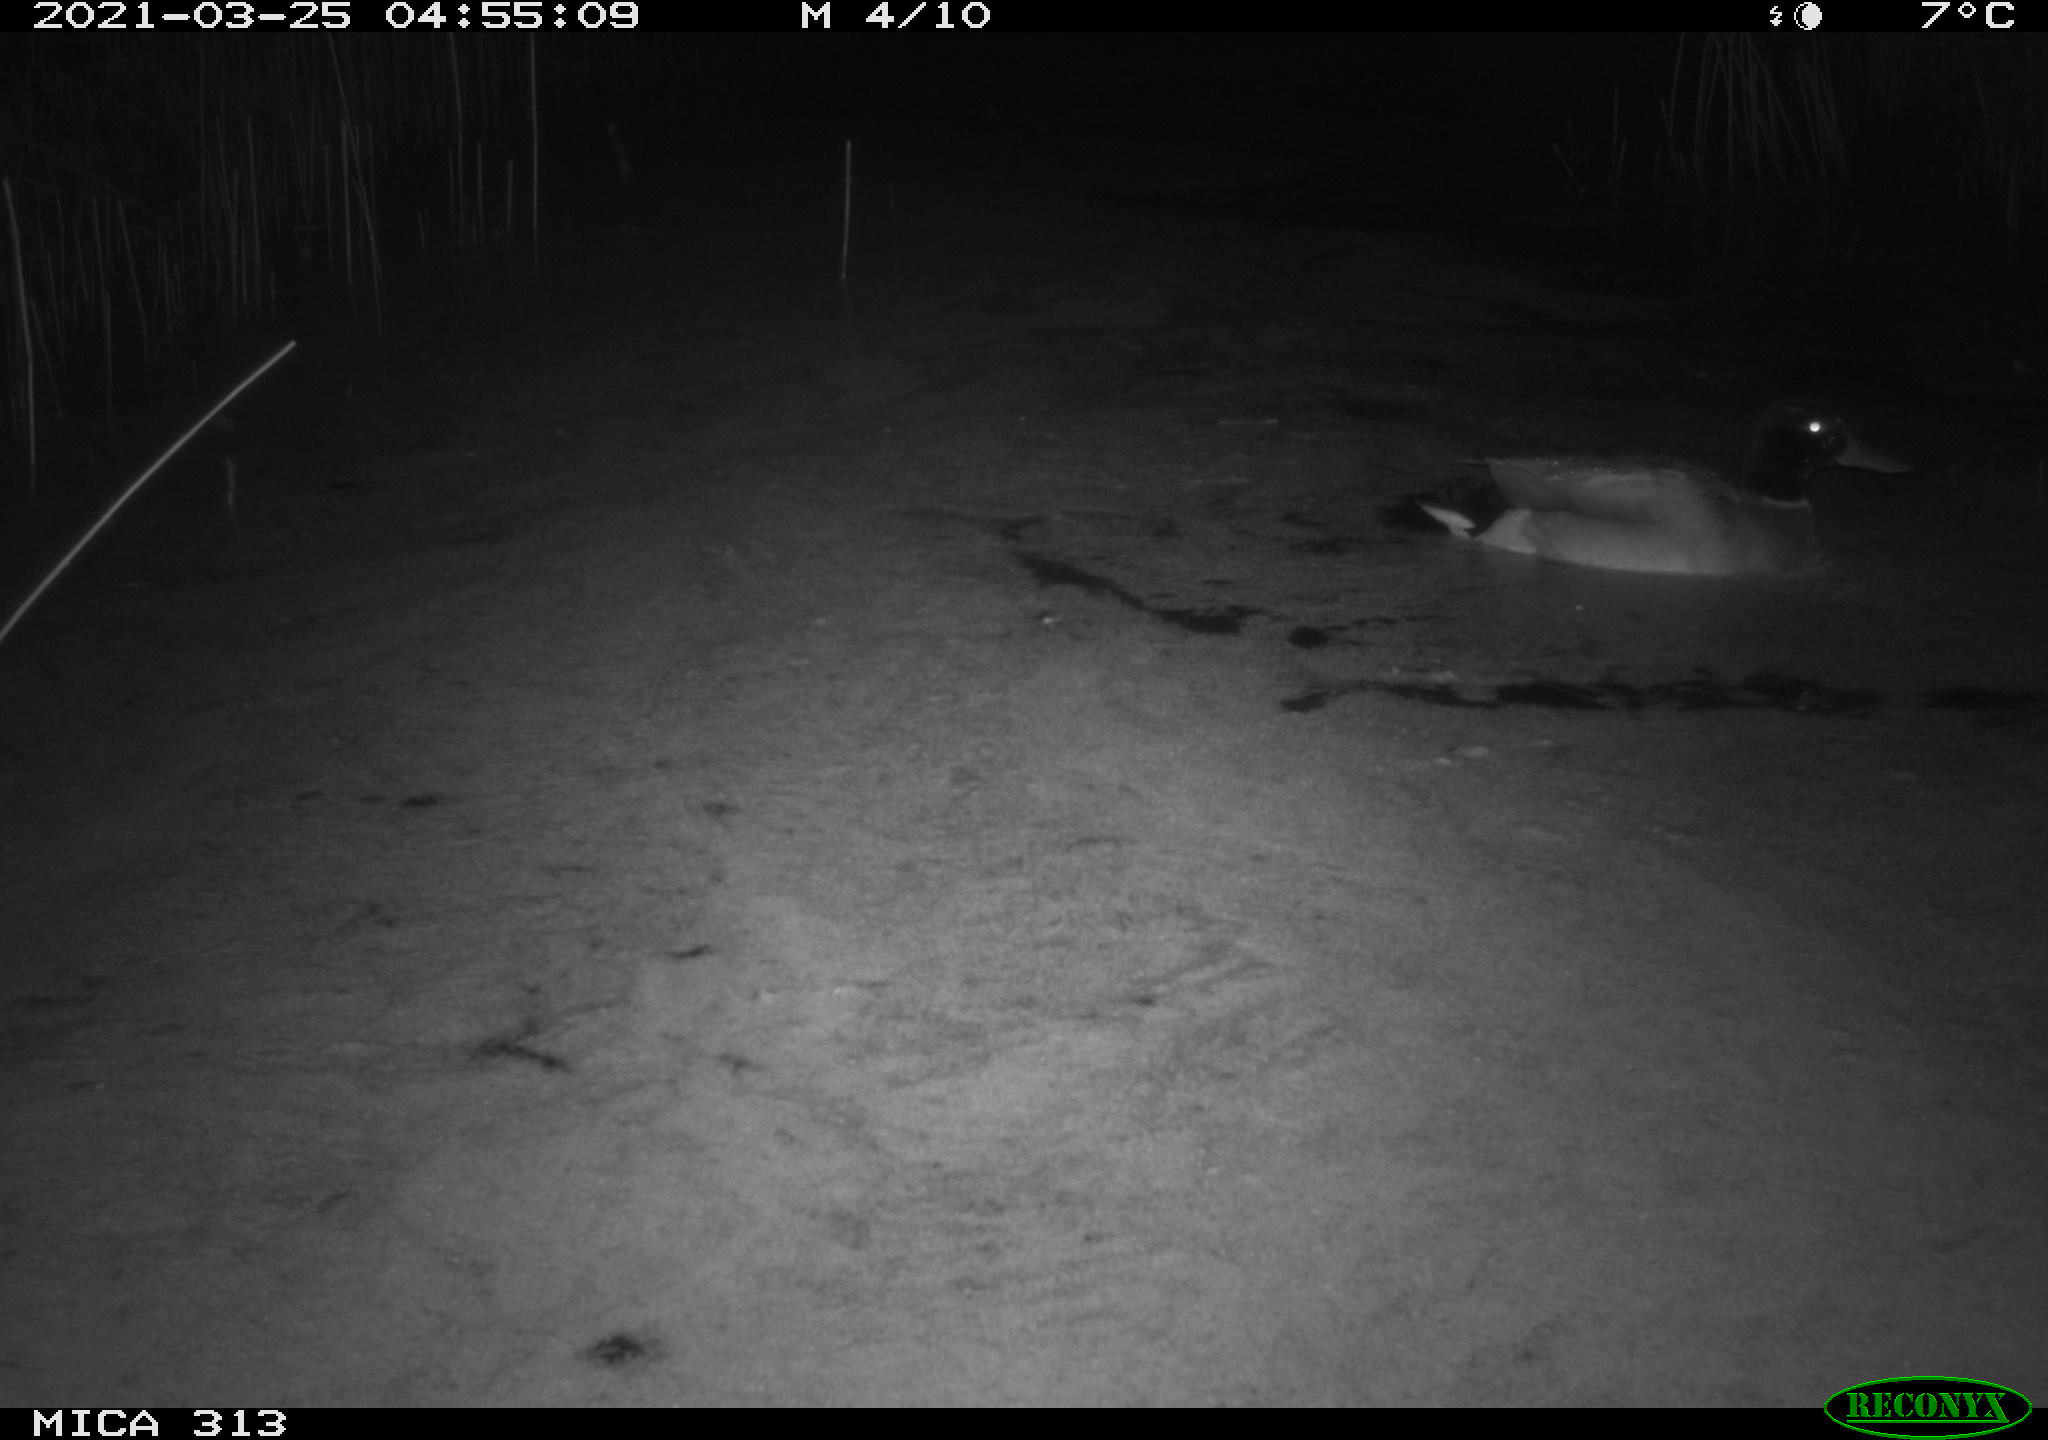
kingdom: Animalia
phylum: Chordata
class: Aves
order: Anseriformes
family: Anatidae
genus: Anas
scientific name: Anas platyrhynchos
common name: Mallard
